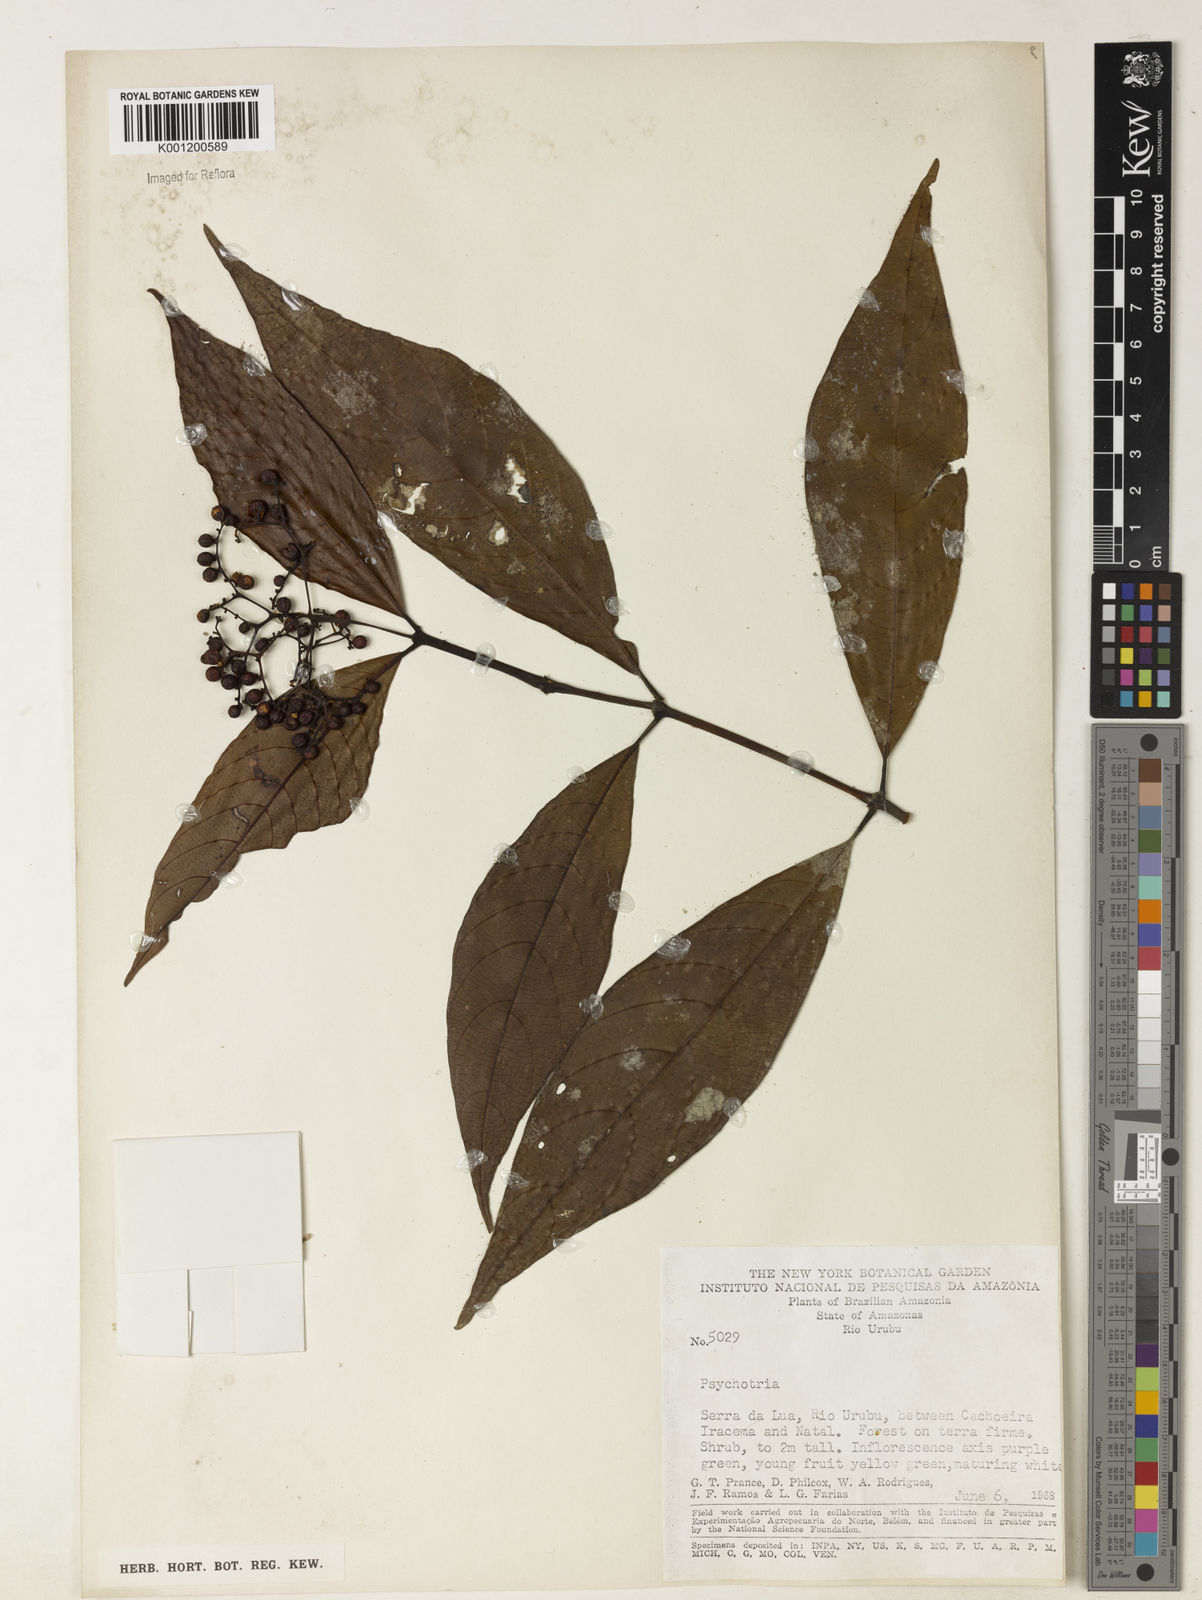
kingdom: Plantae
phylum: Tracheophyta
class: Magnoliopsida
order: Gentianales
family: Rubiaceae
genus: Psychotria
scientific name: Psychotria
